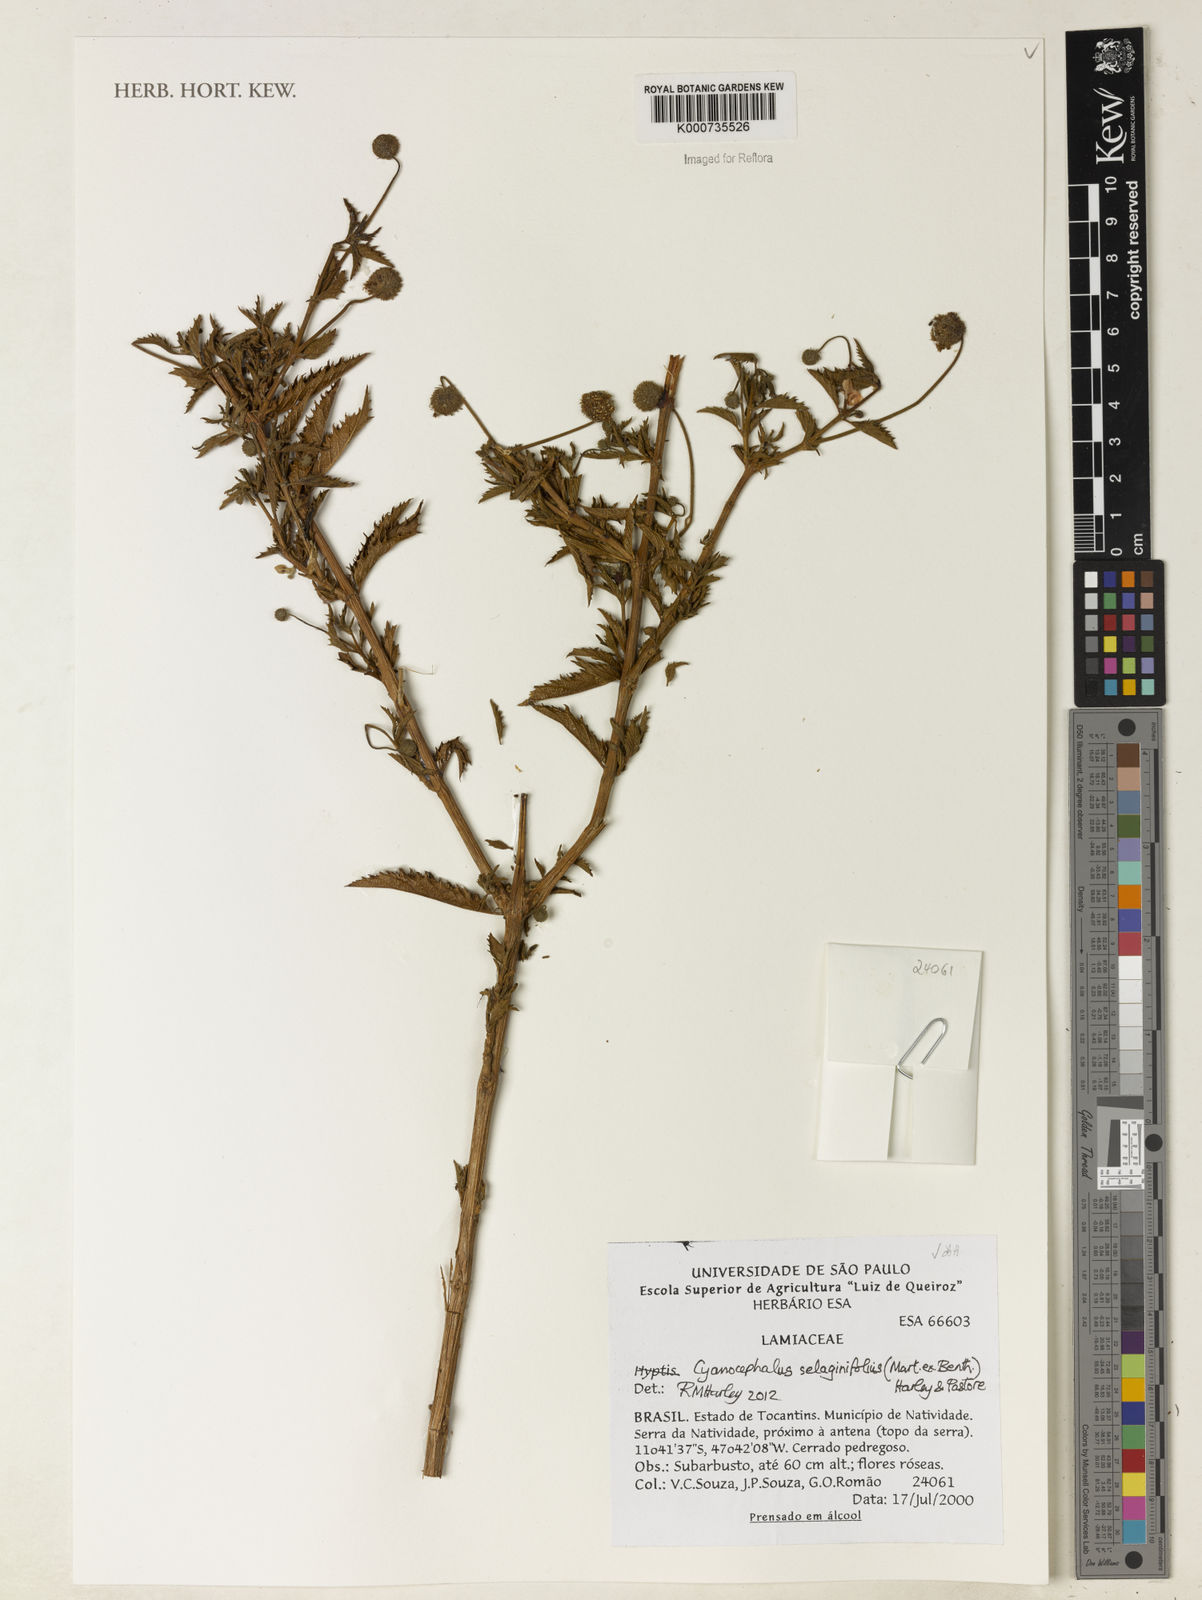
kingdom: Plantae
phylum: Tracheophyta
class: Magnoliopsida
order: Lamiales
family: Lamiaceae
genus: Cyanocephalus
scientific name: Cyanocephalus selaginifolius
